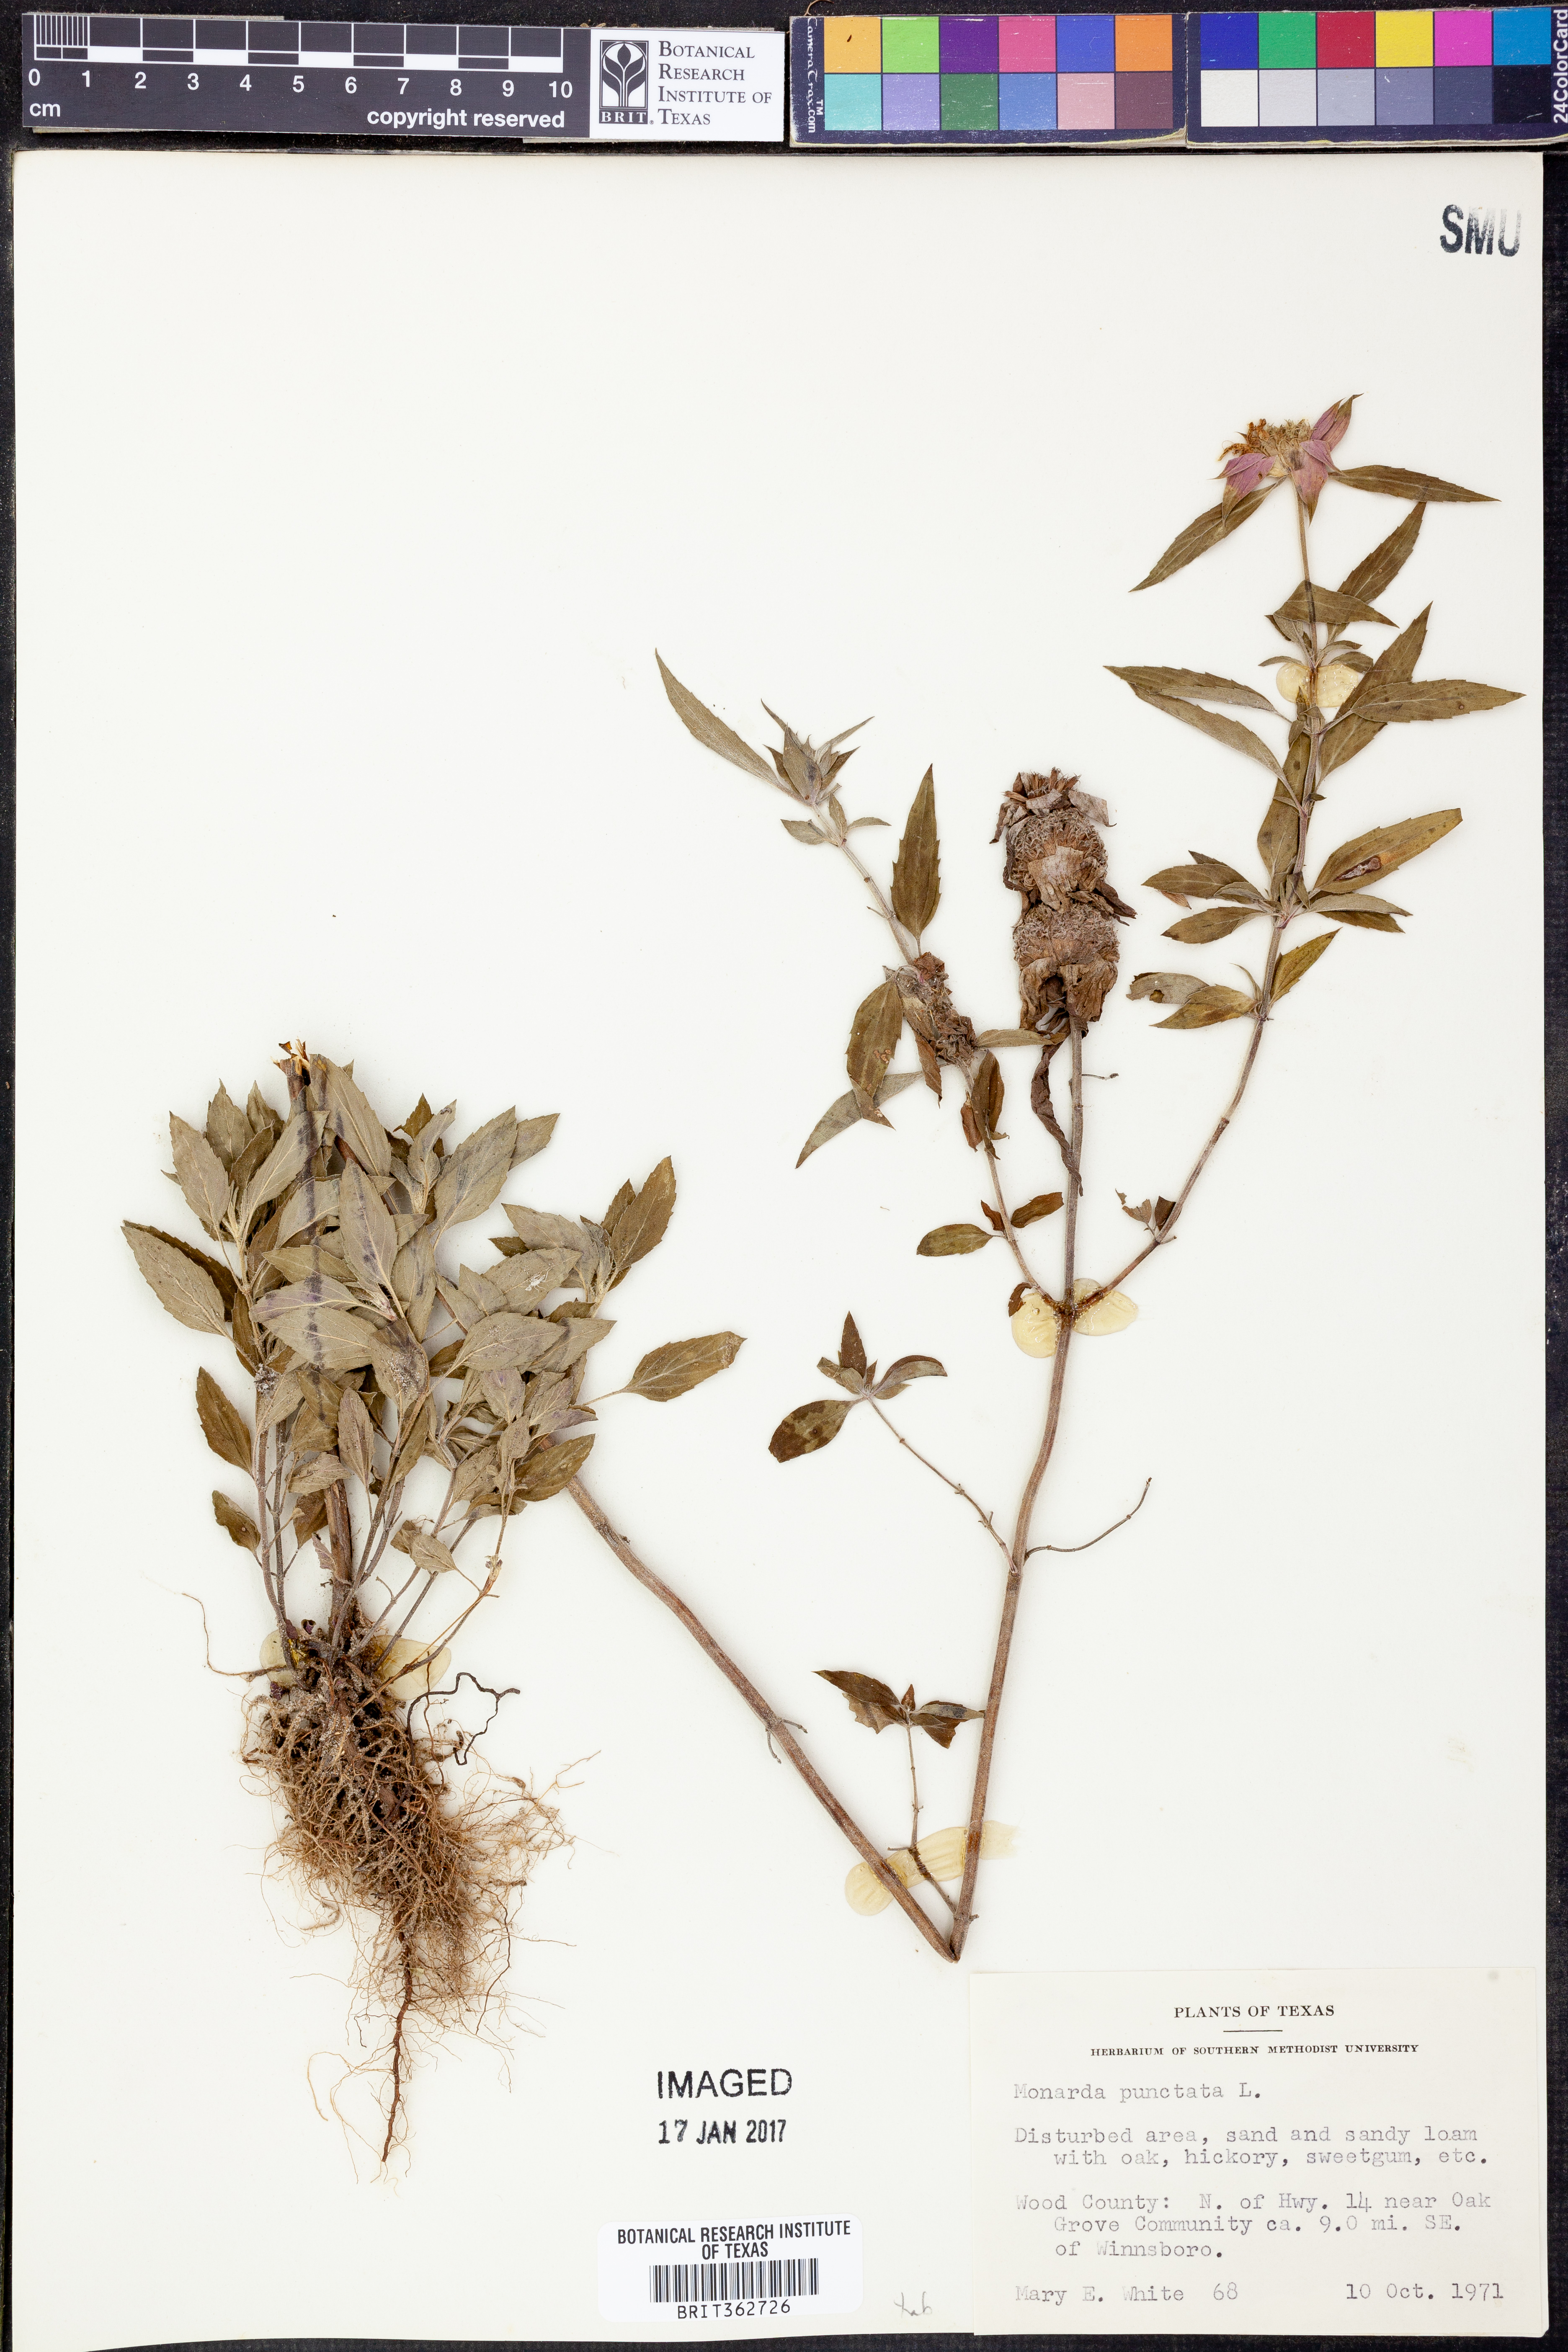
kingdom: Plantae
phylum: Tracheophyta
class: Magnoliopsida
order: Lamiales
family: Lamiaceae
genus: Monarda
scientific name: Monarda punctata
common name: Dotted monarda
